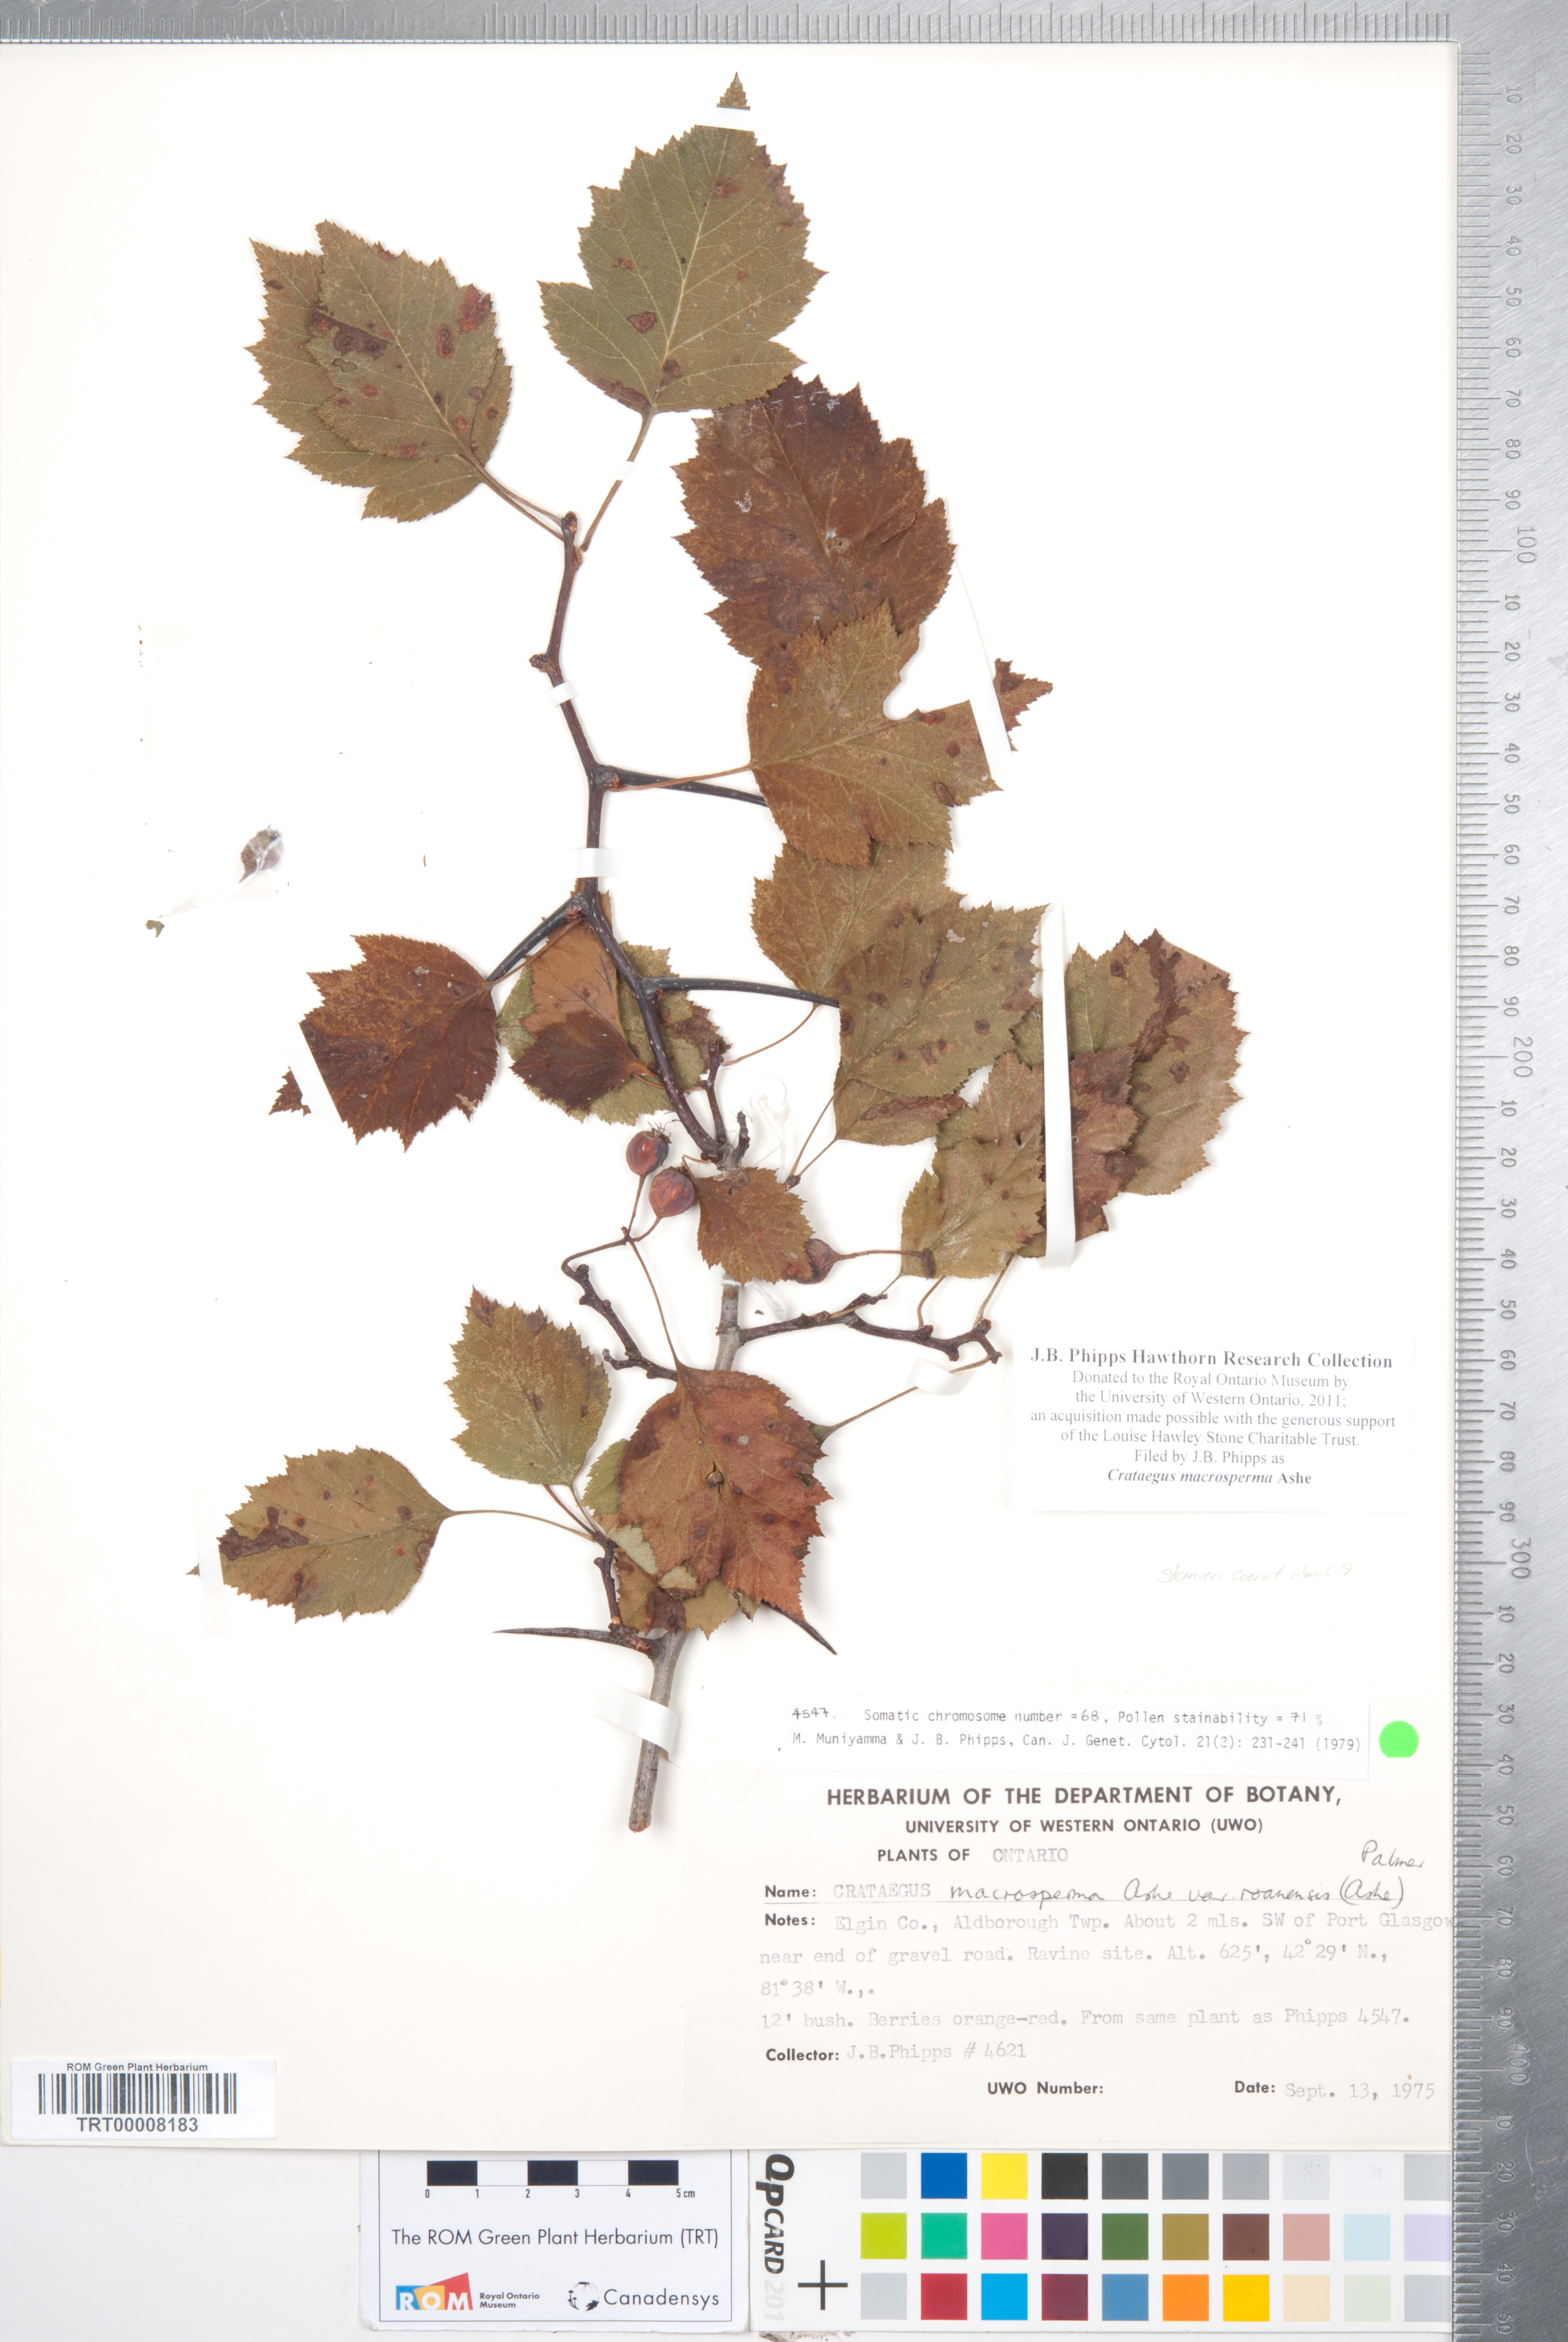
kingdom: Plantae
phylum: Tracheophyta
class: Magnoliopsida
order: Rosales
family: Rosaceae
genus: Crataegus
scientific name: Crataegus macrosperma
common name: Variable hawthorn
